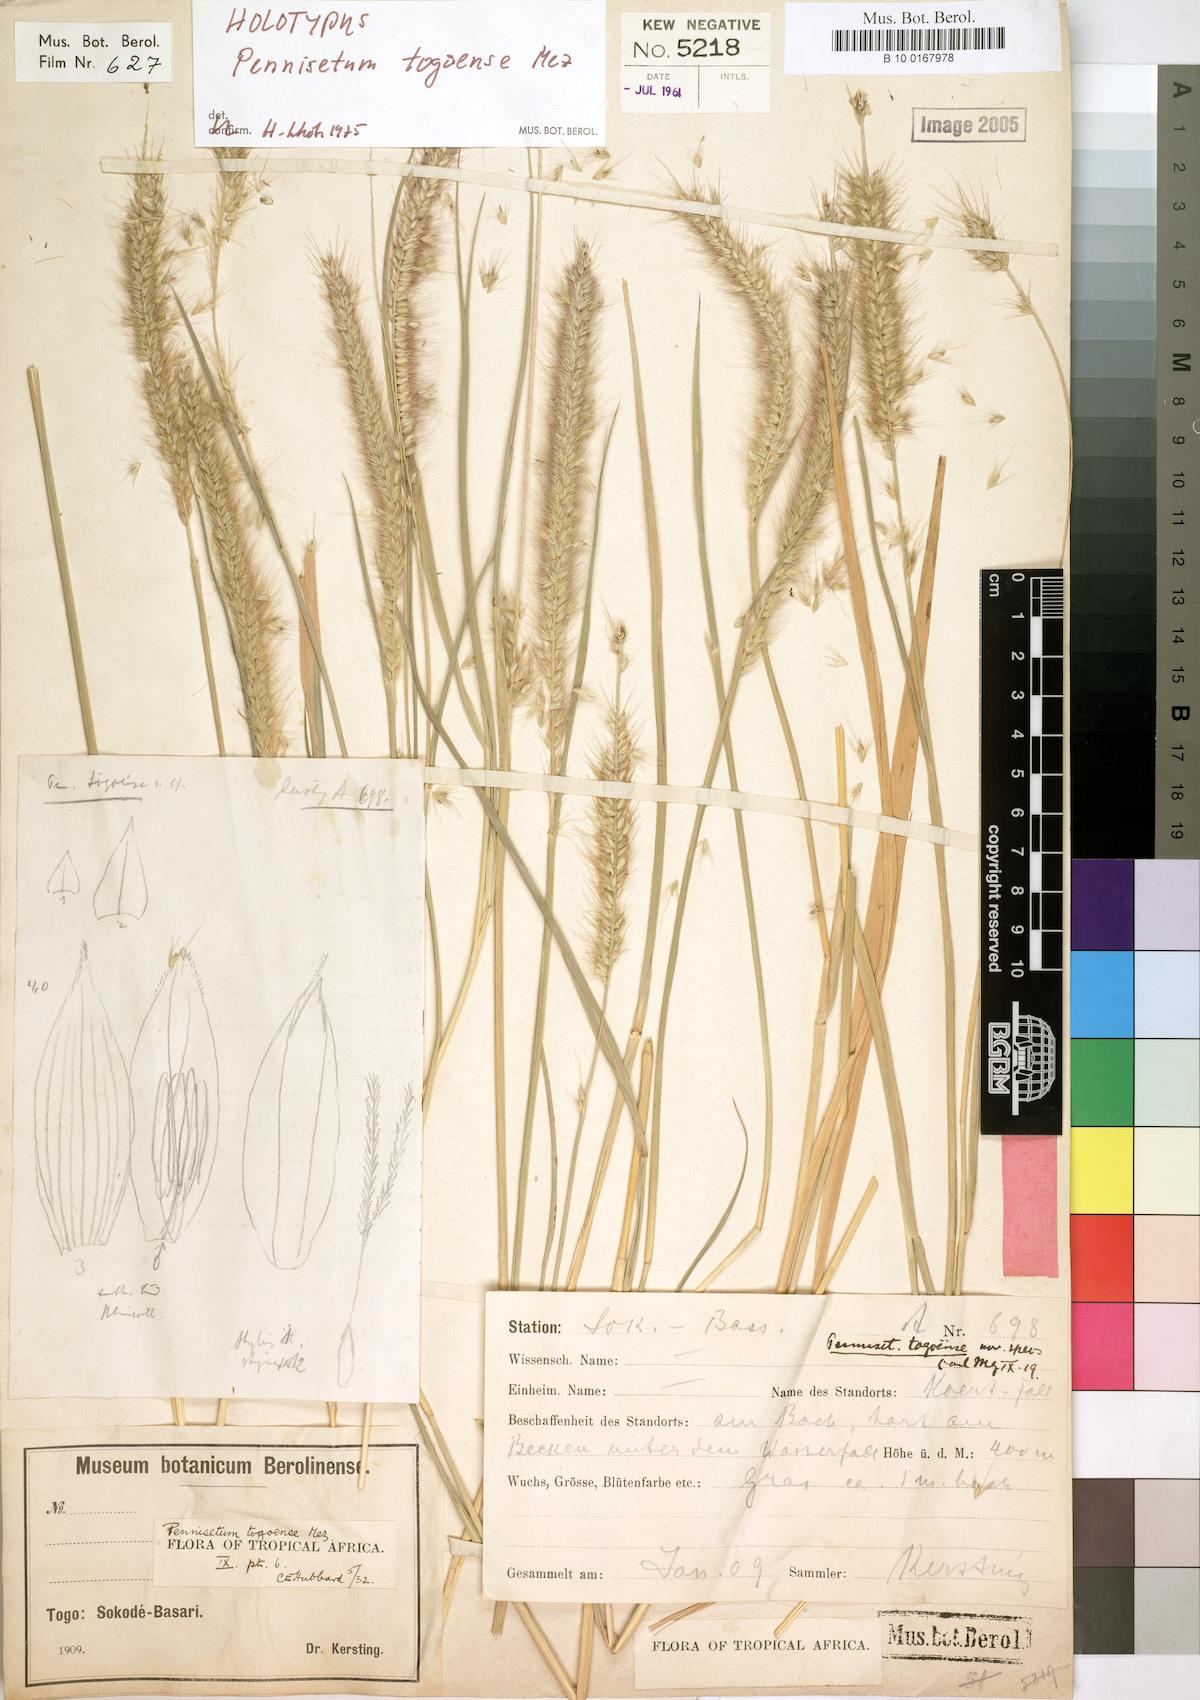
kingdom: Plantae
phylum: Tracheophyta
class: Liliopsida
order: Poales
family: Poaceae
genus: Cenchrus
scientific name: Cenchrus caudatus
